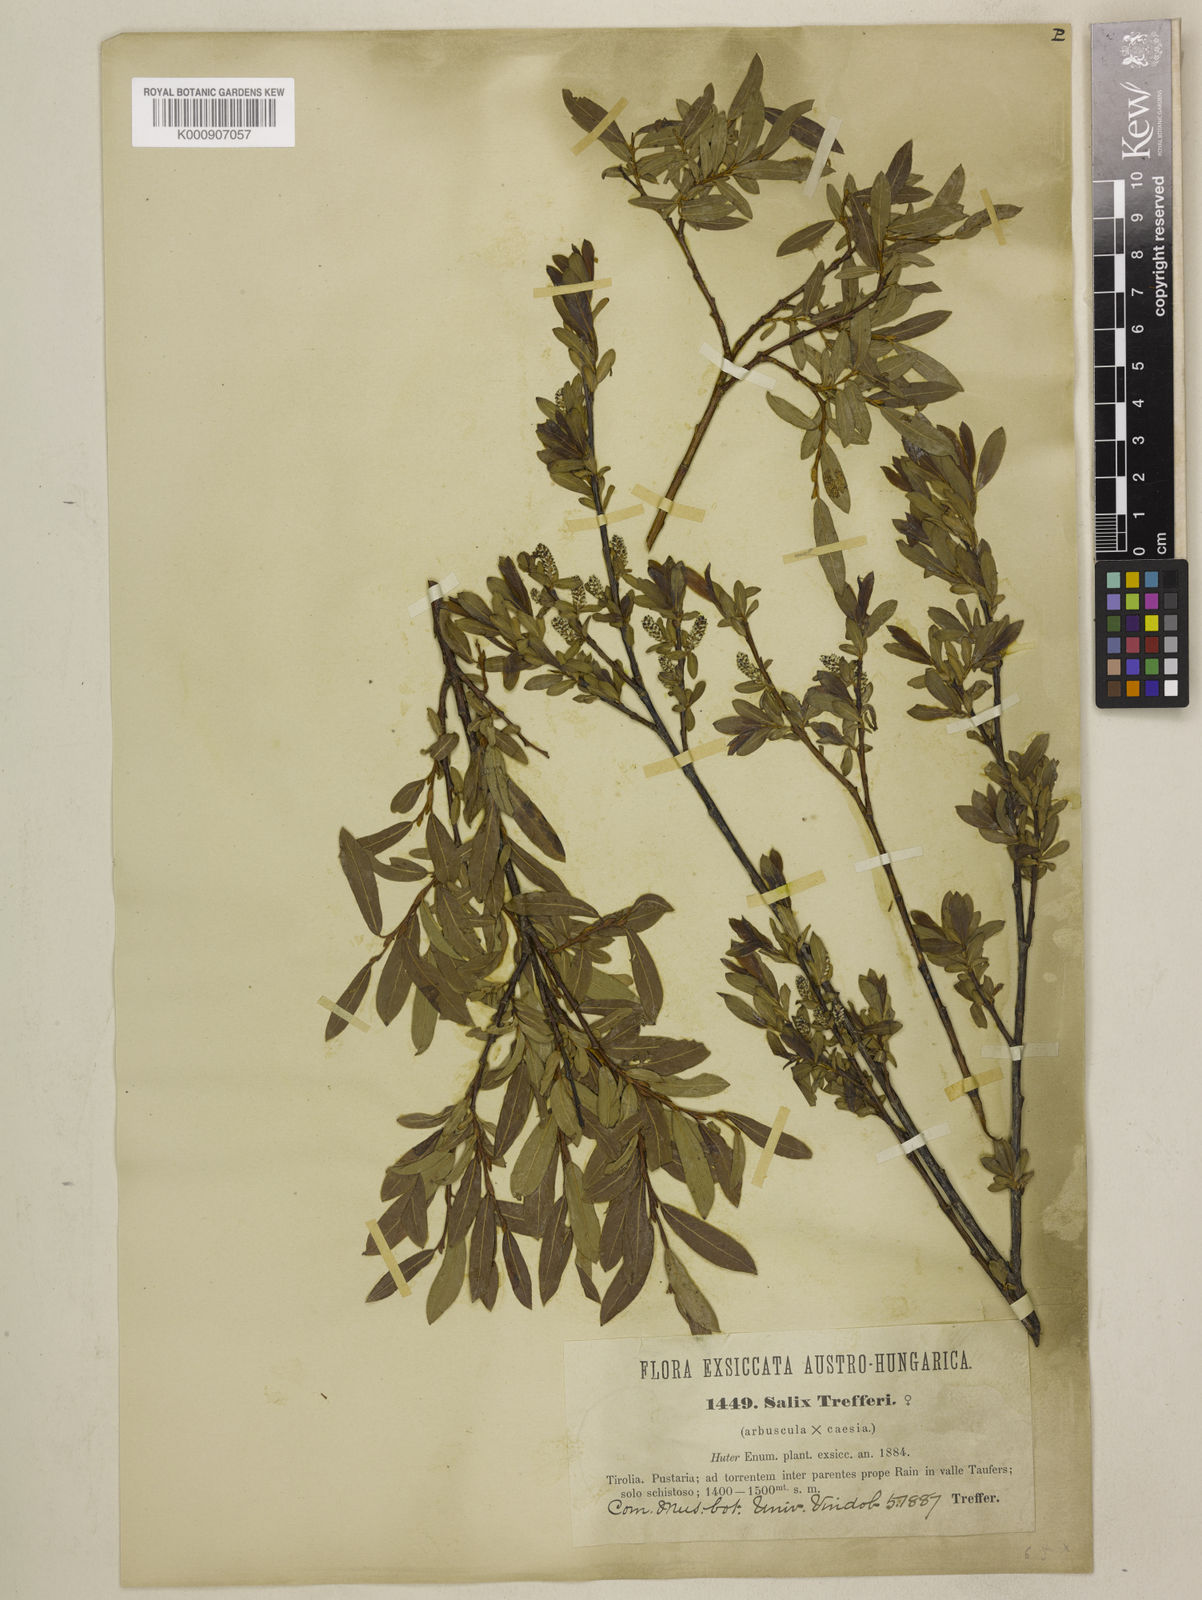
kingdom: Plantae
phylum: Tracheophyta
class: Magnoliopsida
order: Malpighiales
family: Salicaceae
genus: Salix
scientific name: Salix
